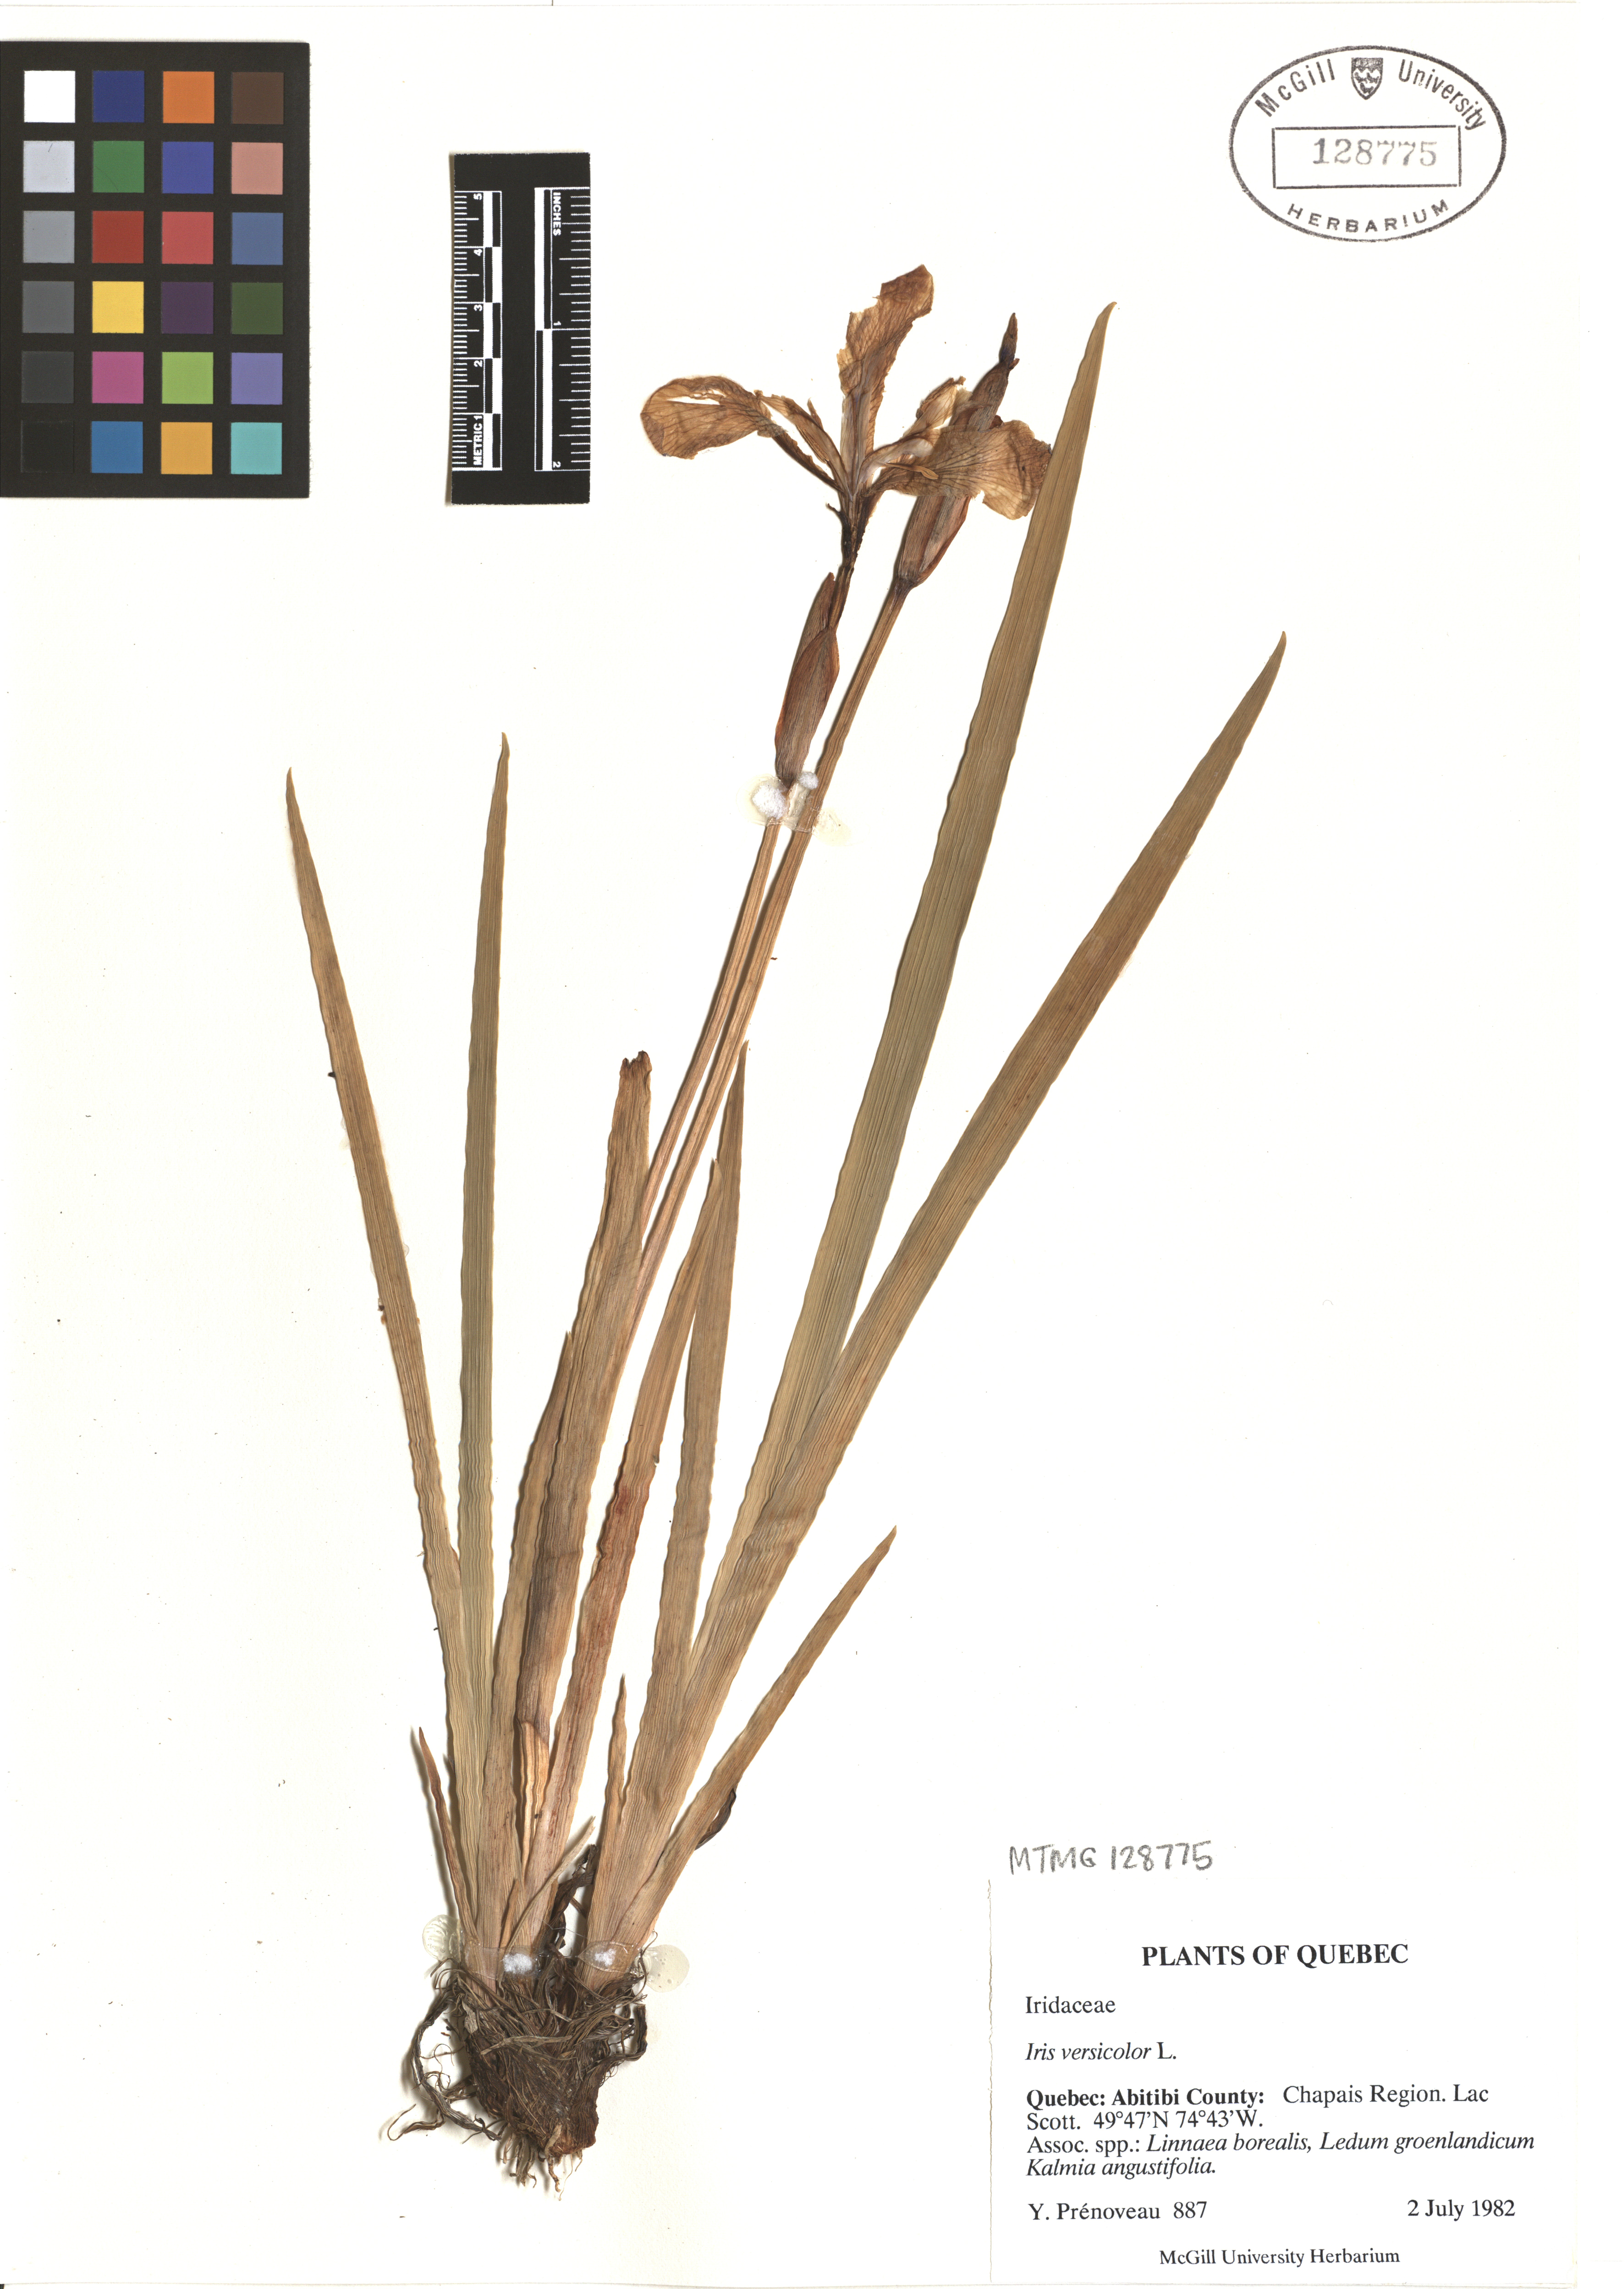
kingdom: Plantae
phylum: Tracheophyta
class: Liliopsida
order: Asparagales
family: Iridaceae
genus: Iris
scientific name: Iris versicolor
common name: Purple iris
